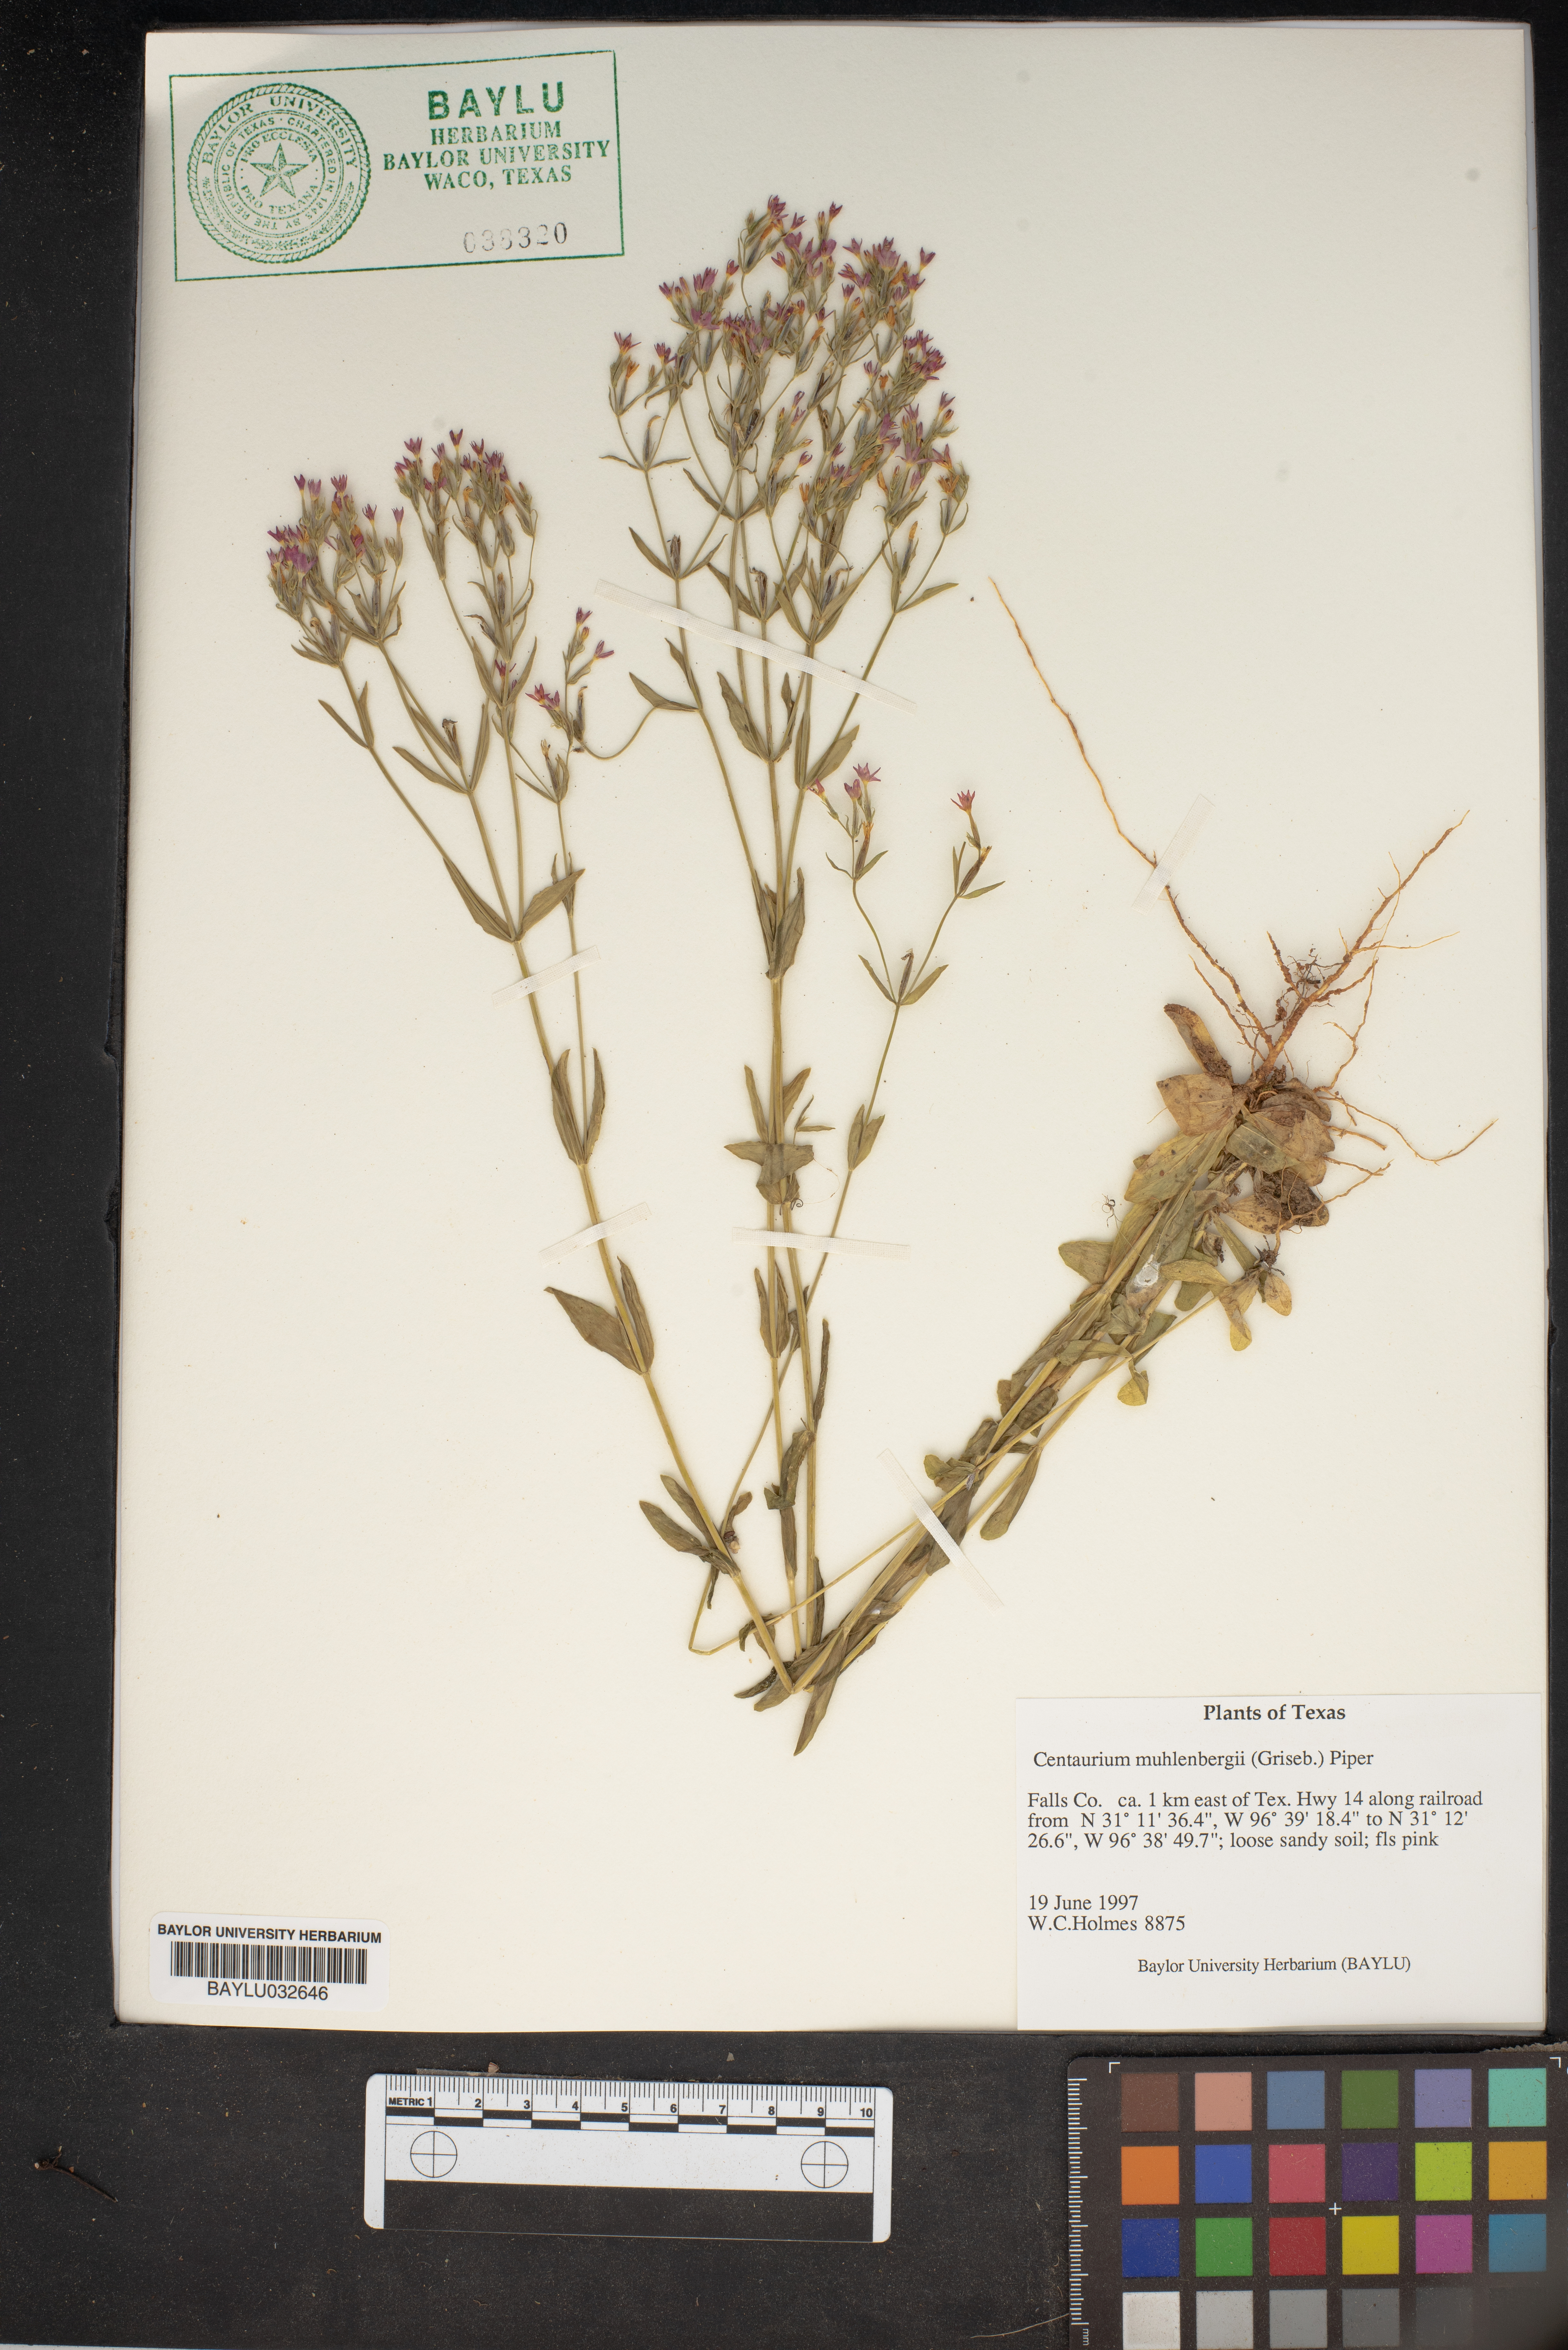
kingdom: Plantae
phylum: Tracheophyta
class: Magnoliopsida
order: Gentianales
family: Gentianaceae
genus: Zeltnera
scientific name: Zeltnera muhlenbergii
